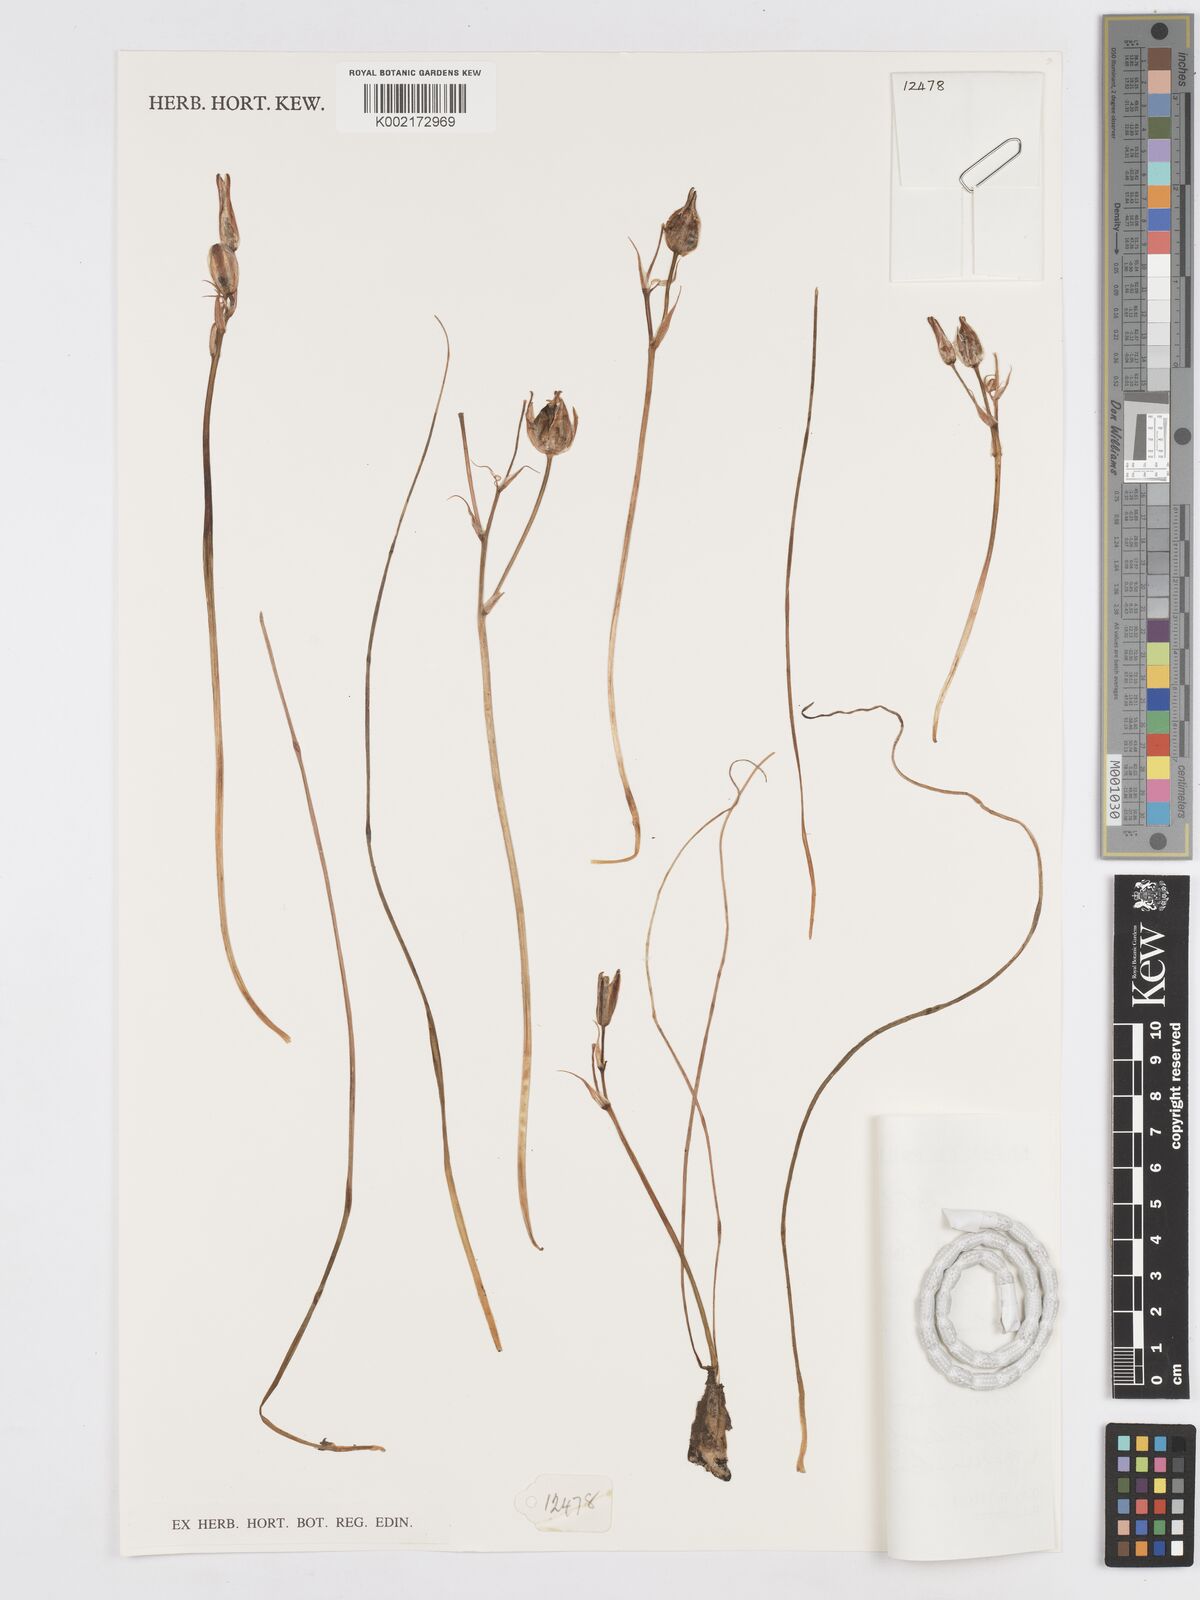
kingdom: Plantae
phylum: Tracheophyta
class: Liliopsida
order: Asparagales
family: Asparagaceae
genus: Albuca
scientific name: Albuca humilis
